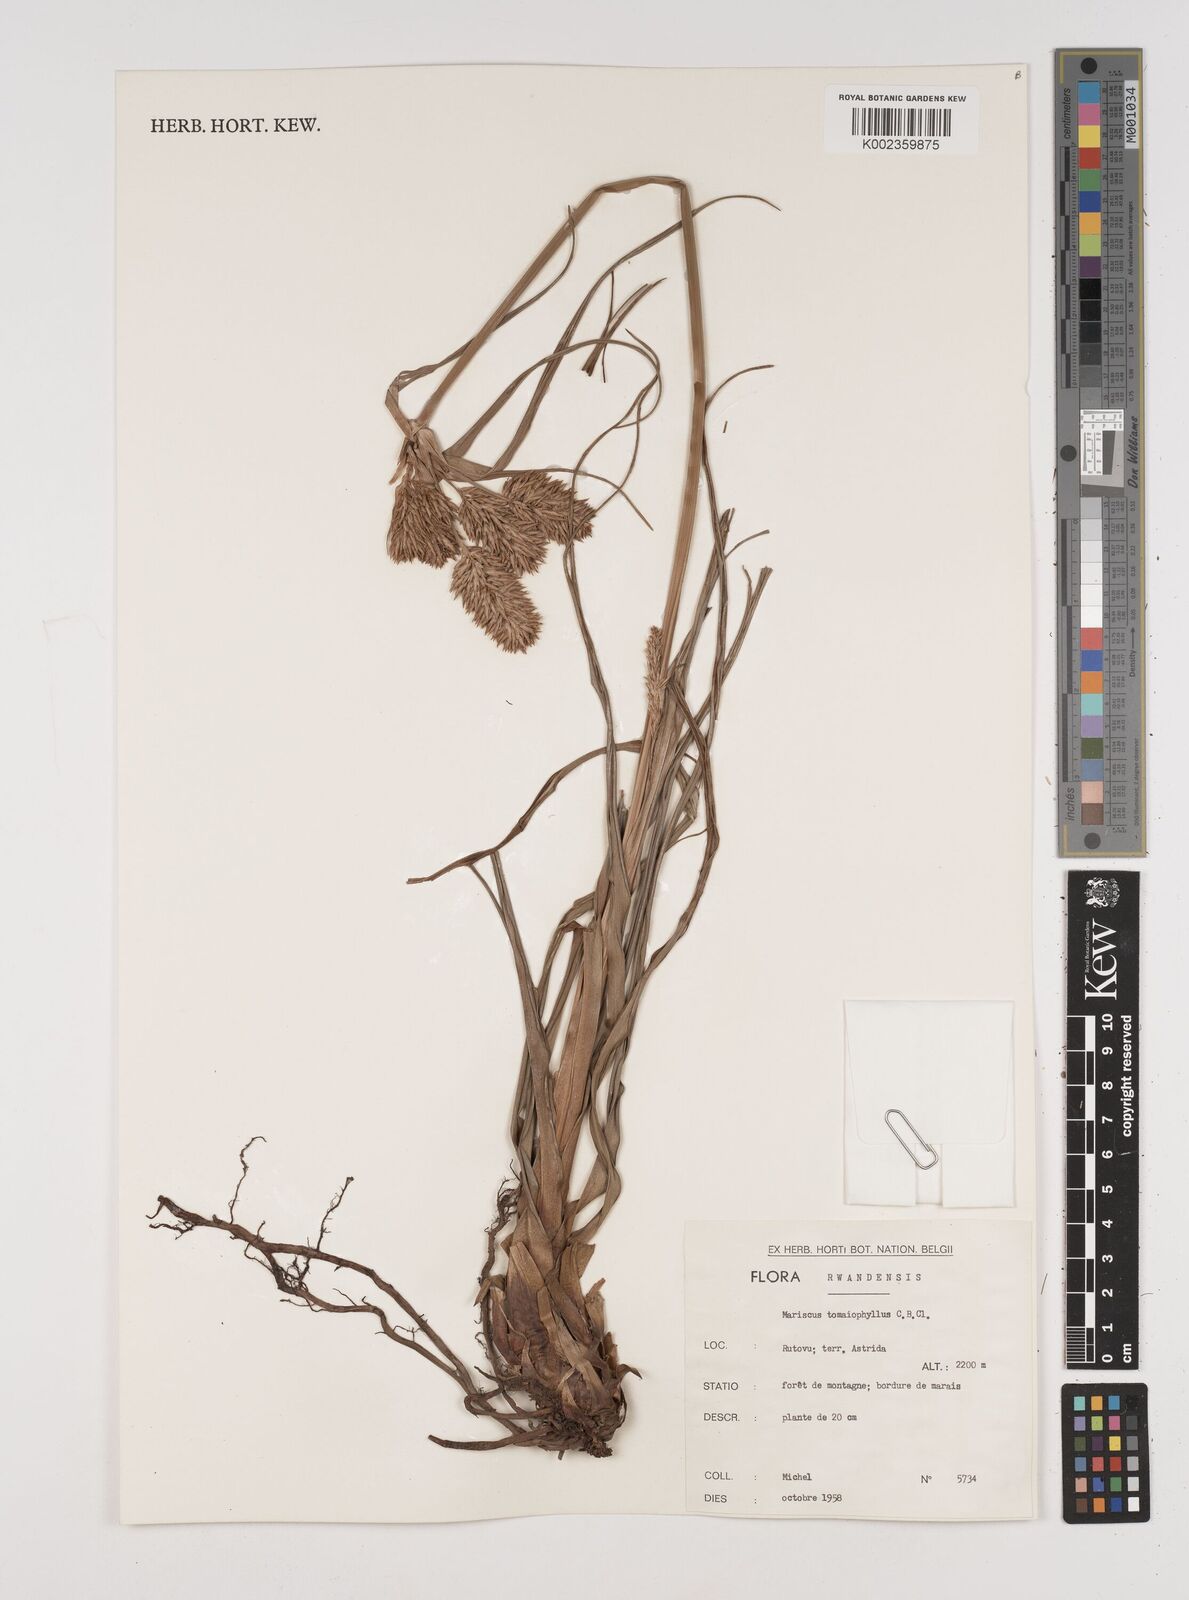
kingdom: Plantae
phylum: Tracheophyta
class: Liliopsida
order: Poales
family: Cyperaceae
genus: Cyperus
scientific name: Cyperus tomaiophyllus
